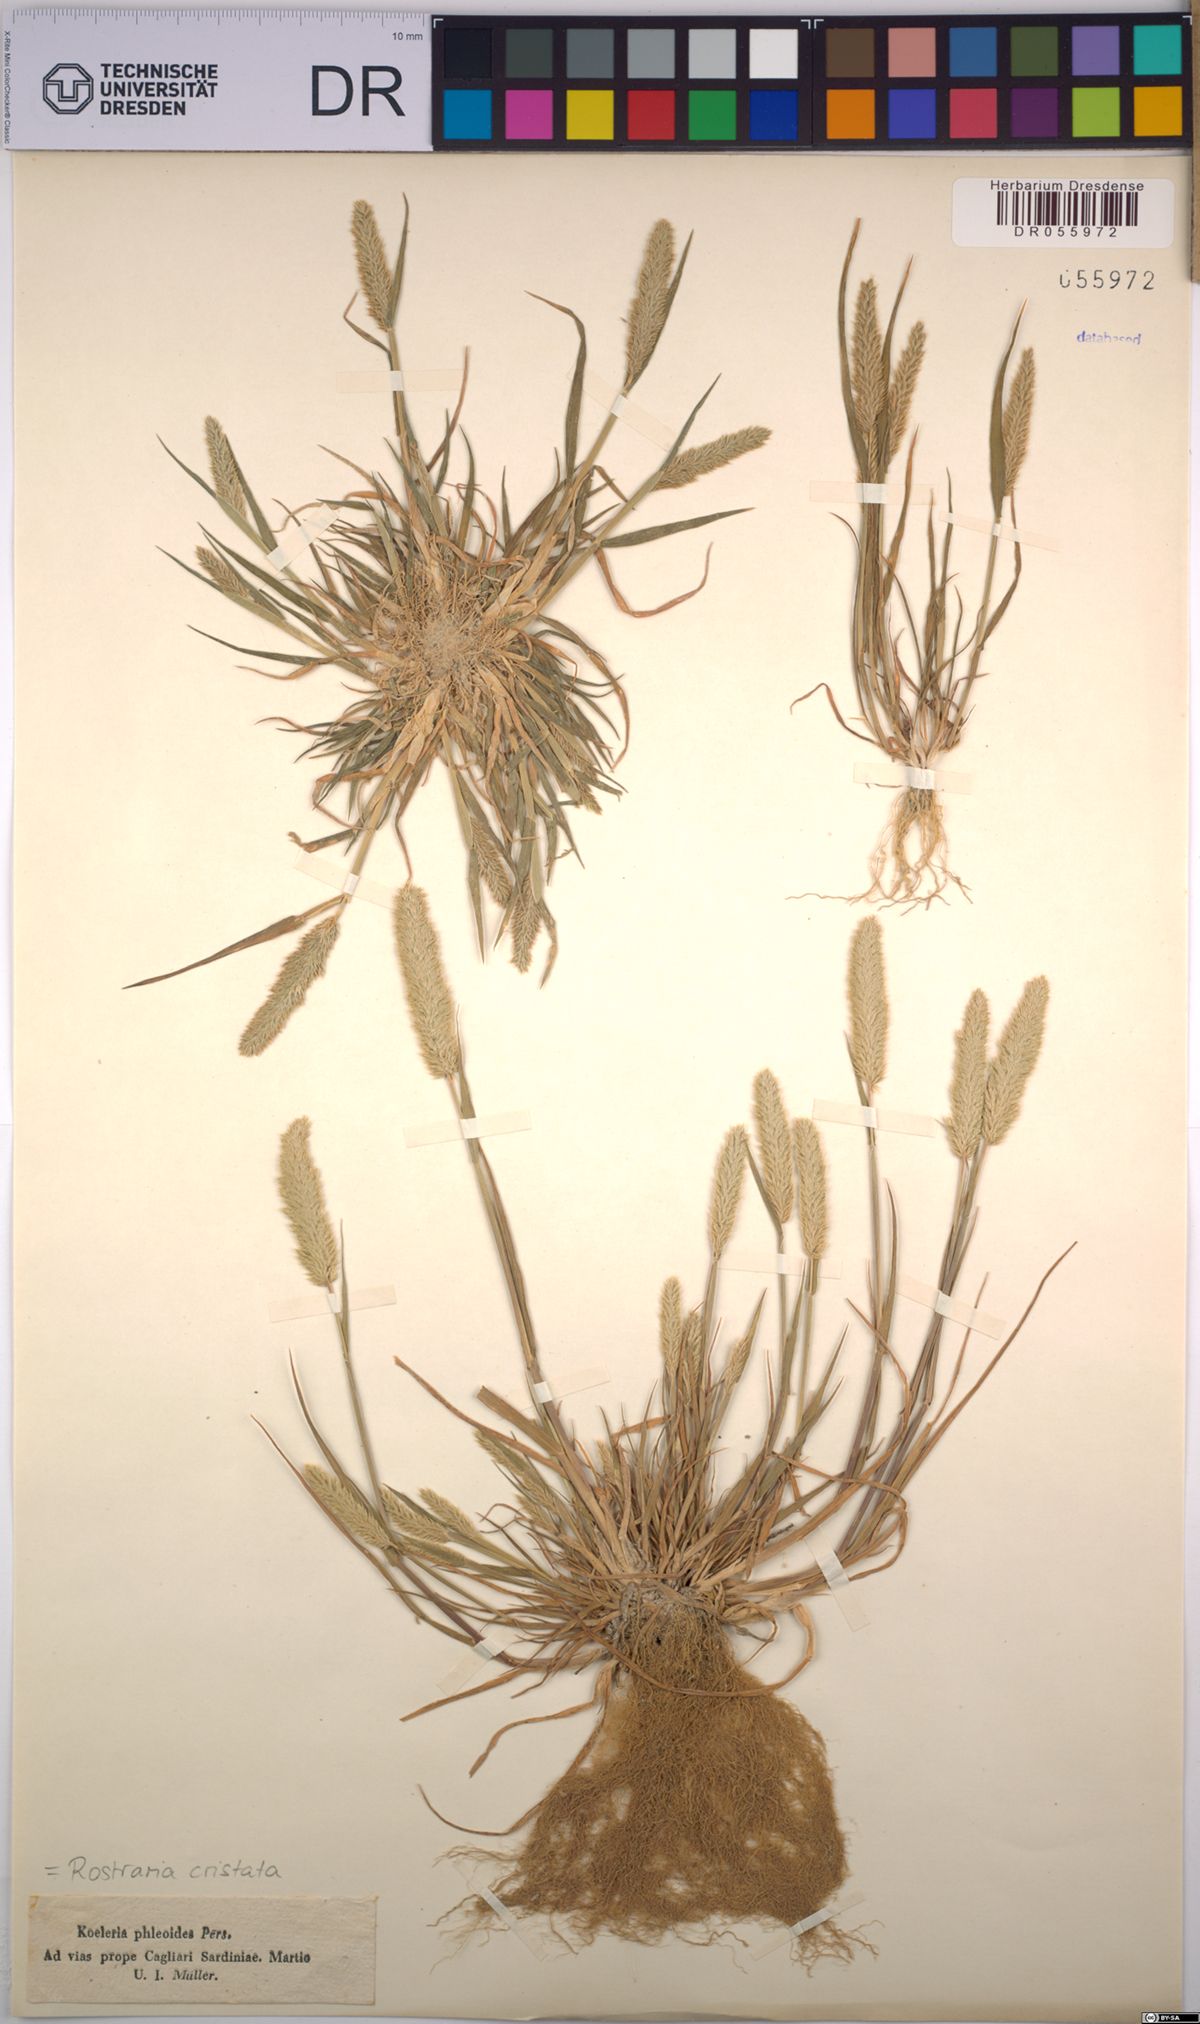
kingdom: Plantae
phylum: Tracheophyta
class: Liliopsida
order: Poales
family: Poaceae
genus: Rostraria
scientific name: Rostraria cristata
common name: Mediterranean hair-grass
